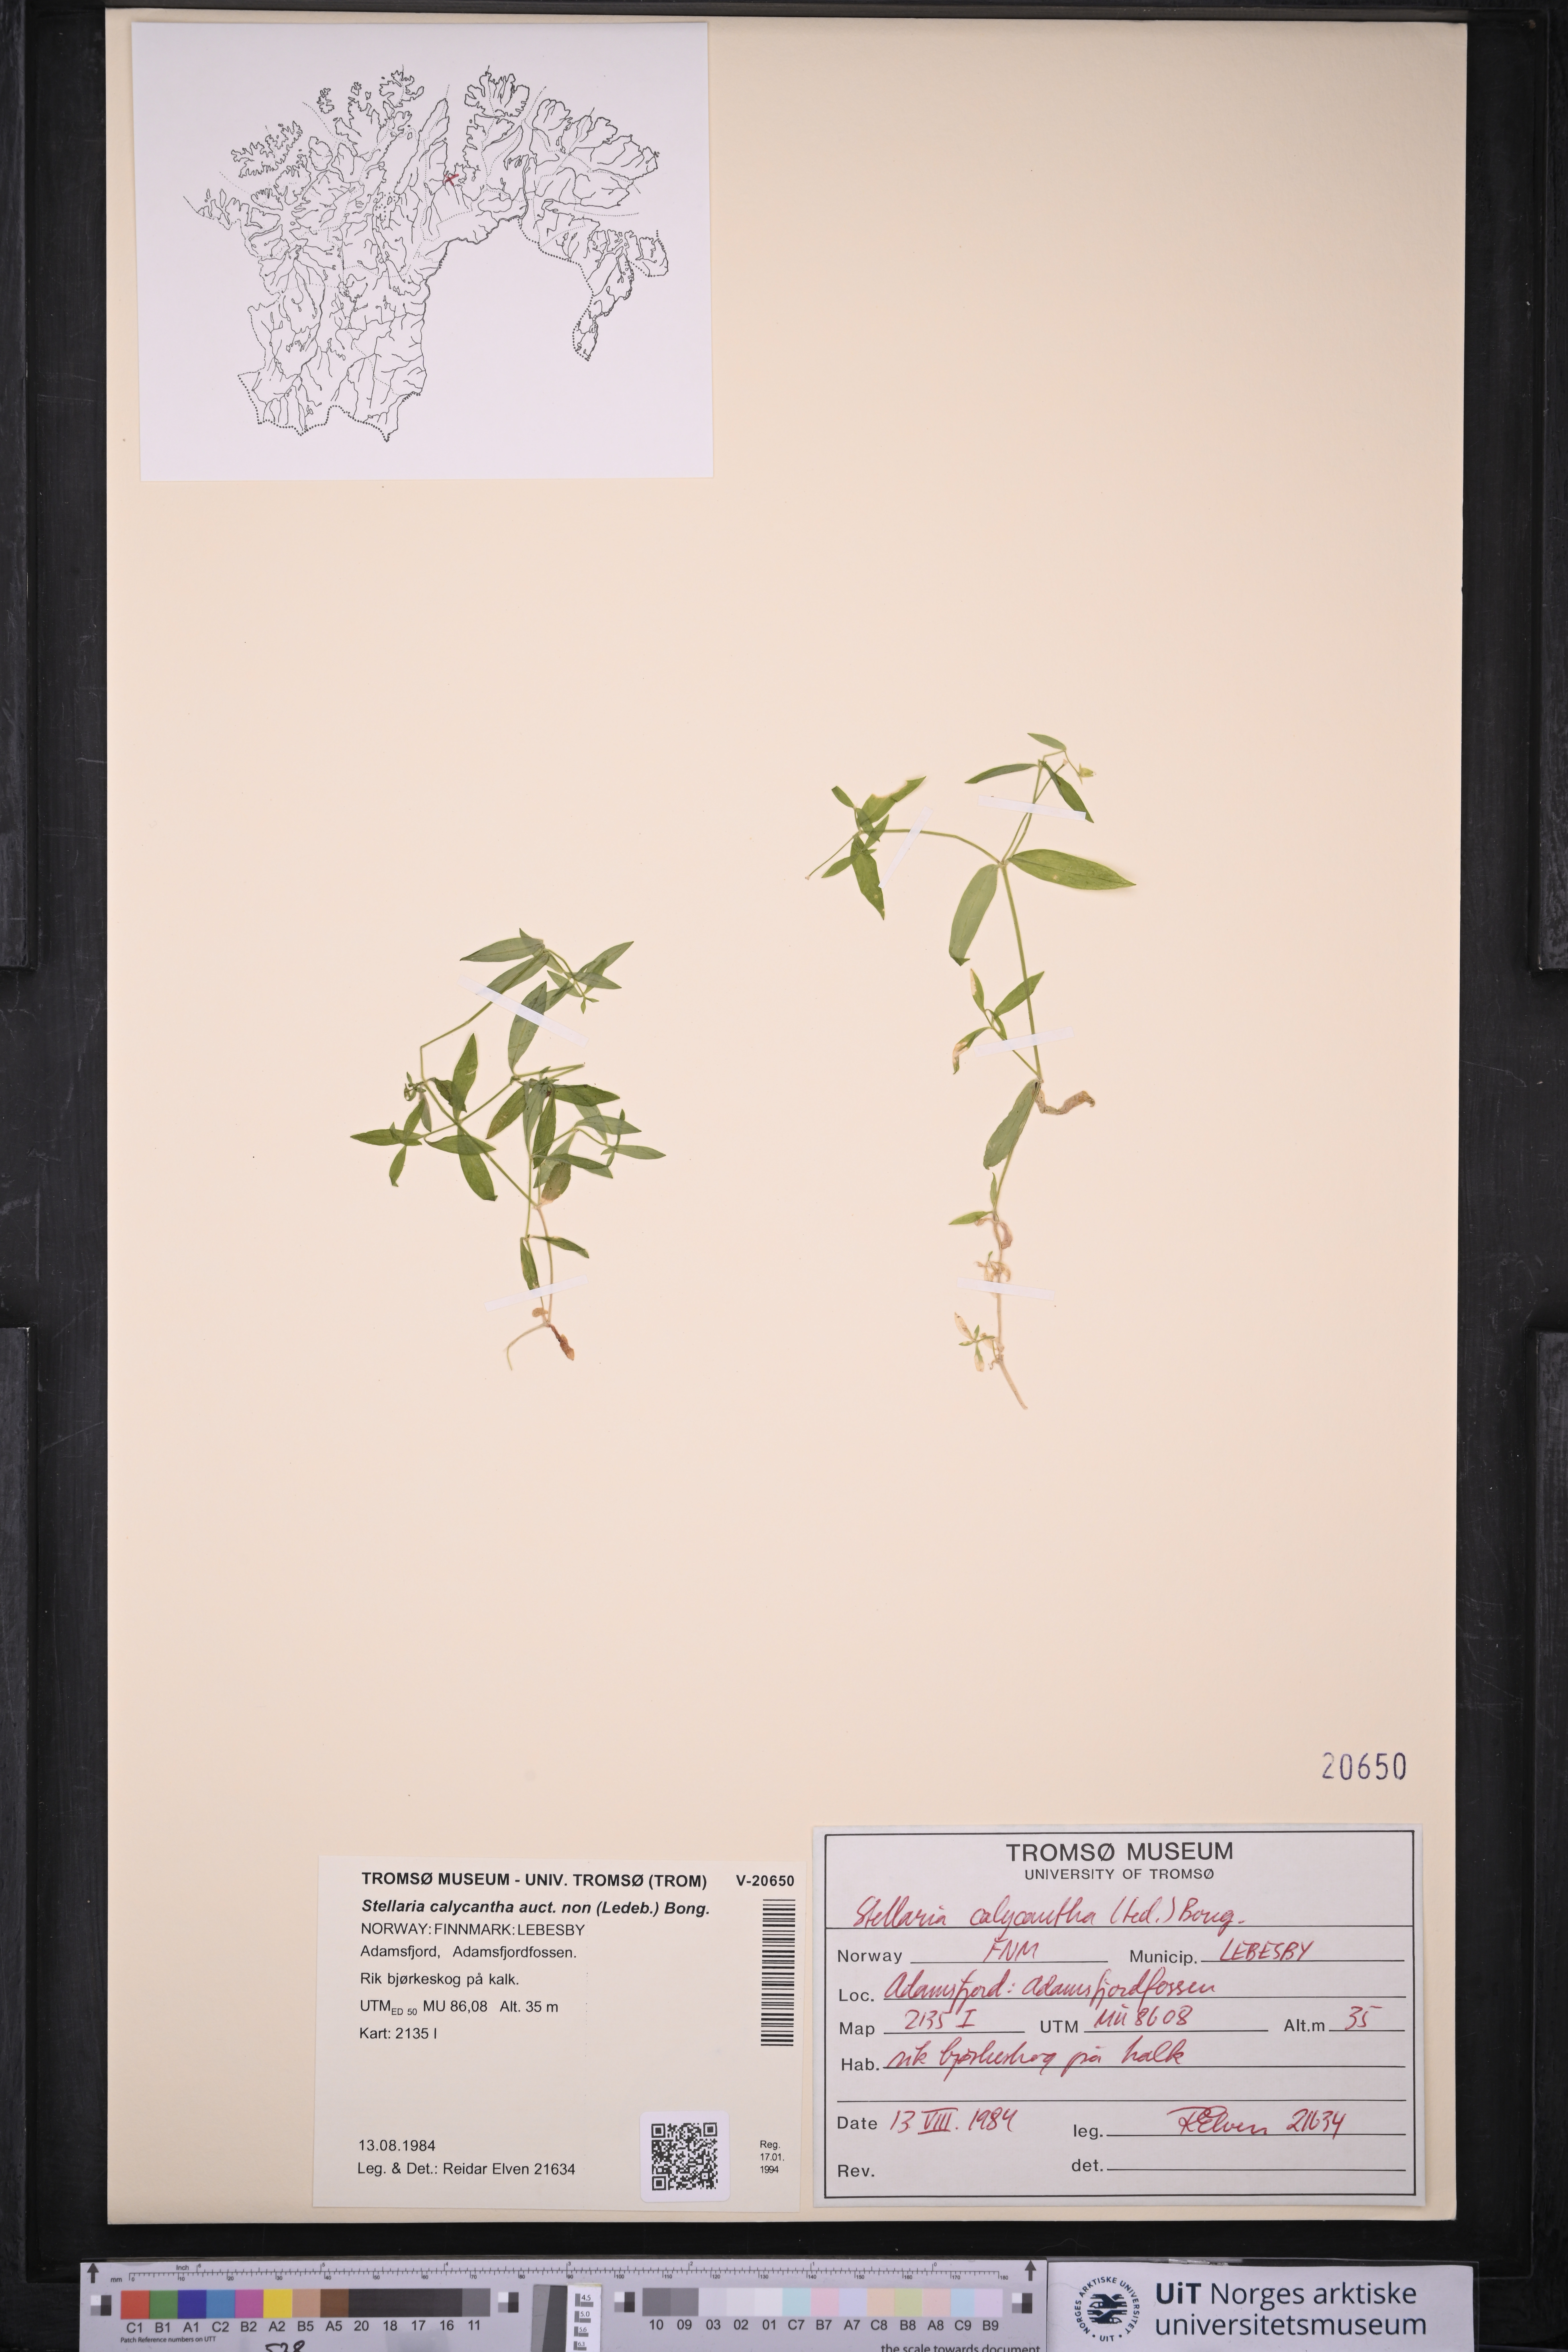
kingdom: Plantae
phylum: Tracheophyta
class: Magnoliopsida
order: Caryophyllales
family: Caryophyllaceae
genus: Stellaria
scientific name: Stellaria borealis
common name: Boreal starwort
